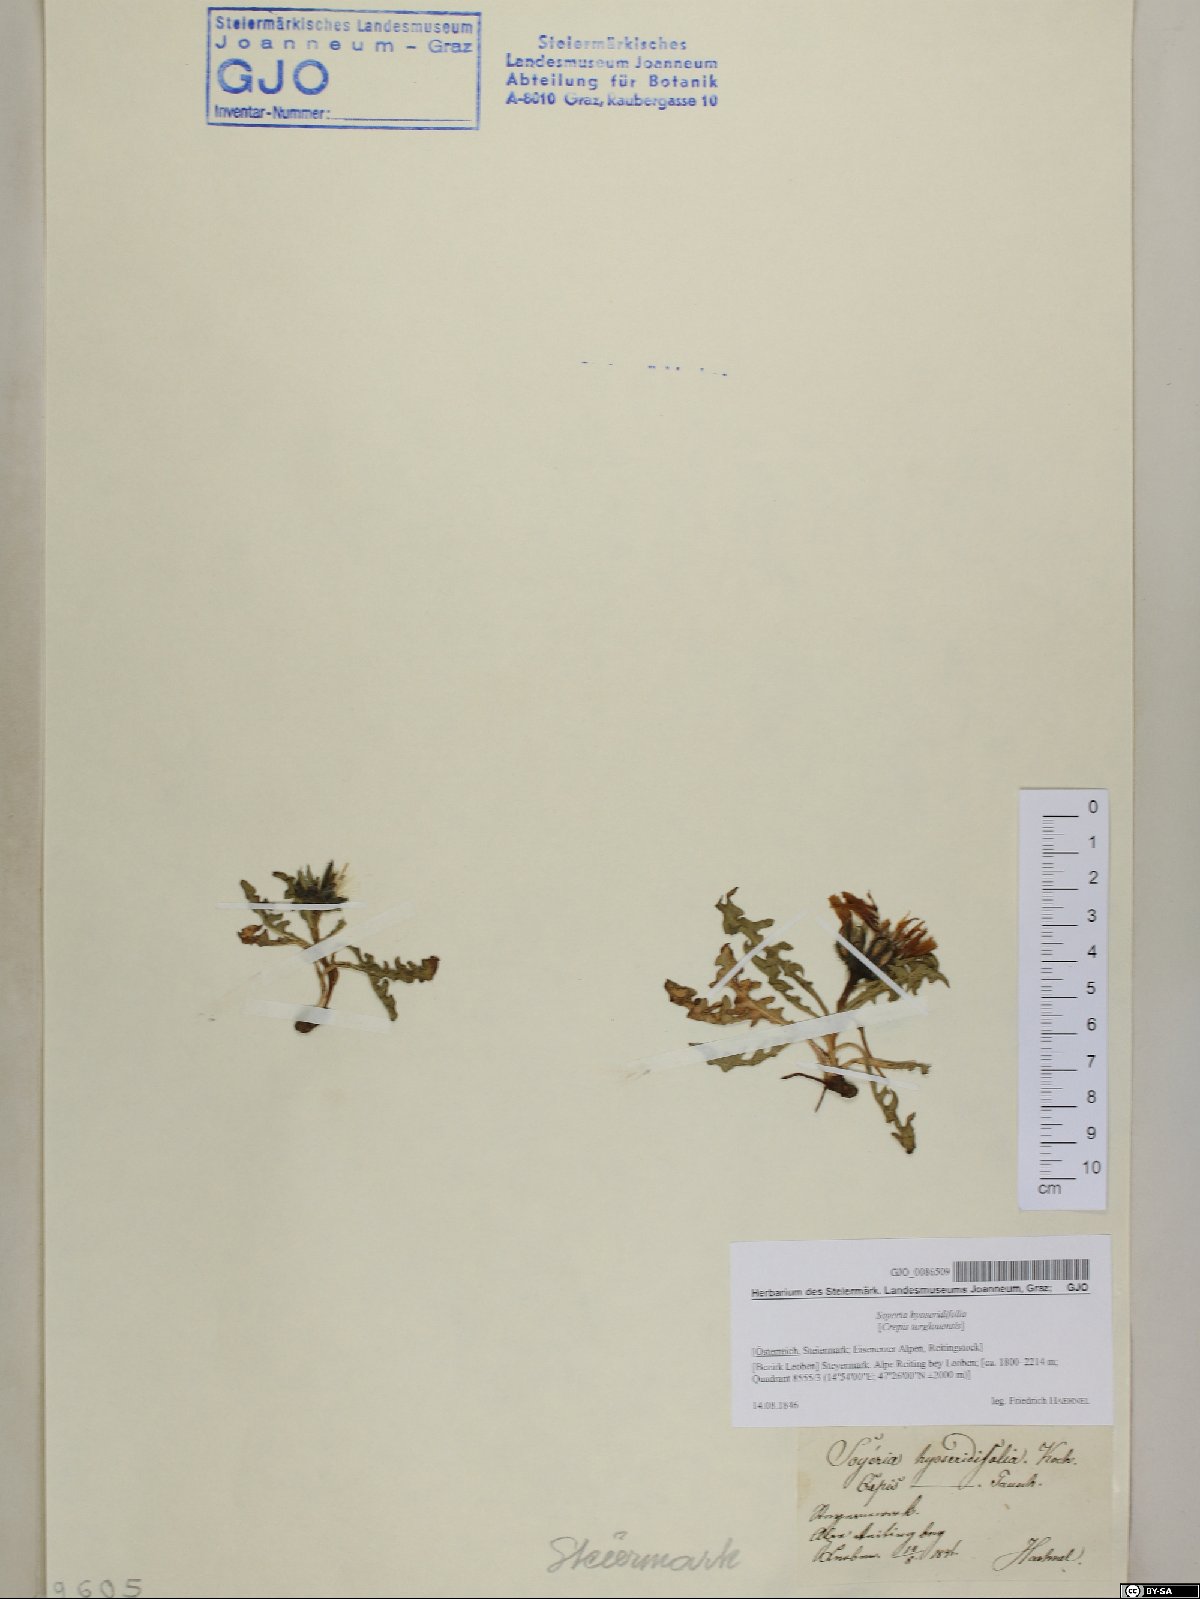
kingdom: Plantae
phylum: Tracheophyta
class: Magnoliopsida
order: Asterales
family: Asteraceae
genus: Crepis
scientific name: Crepis terglouensis
